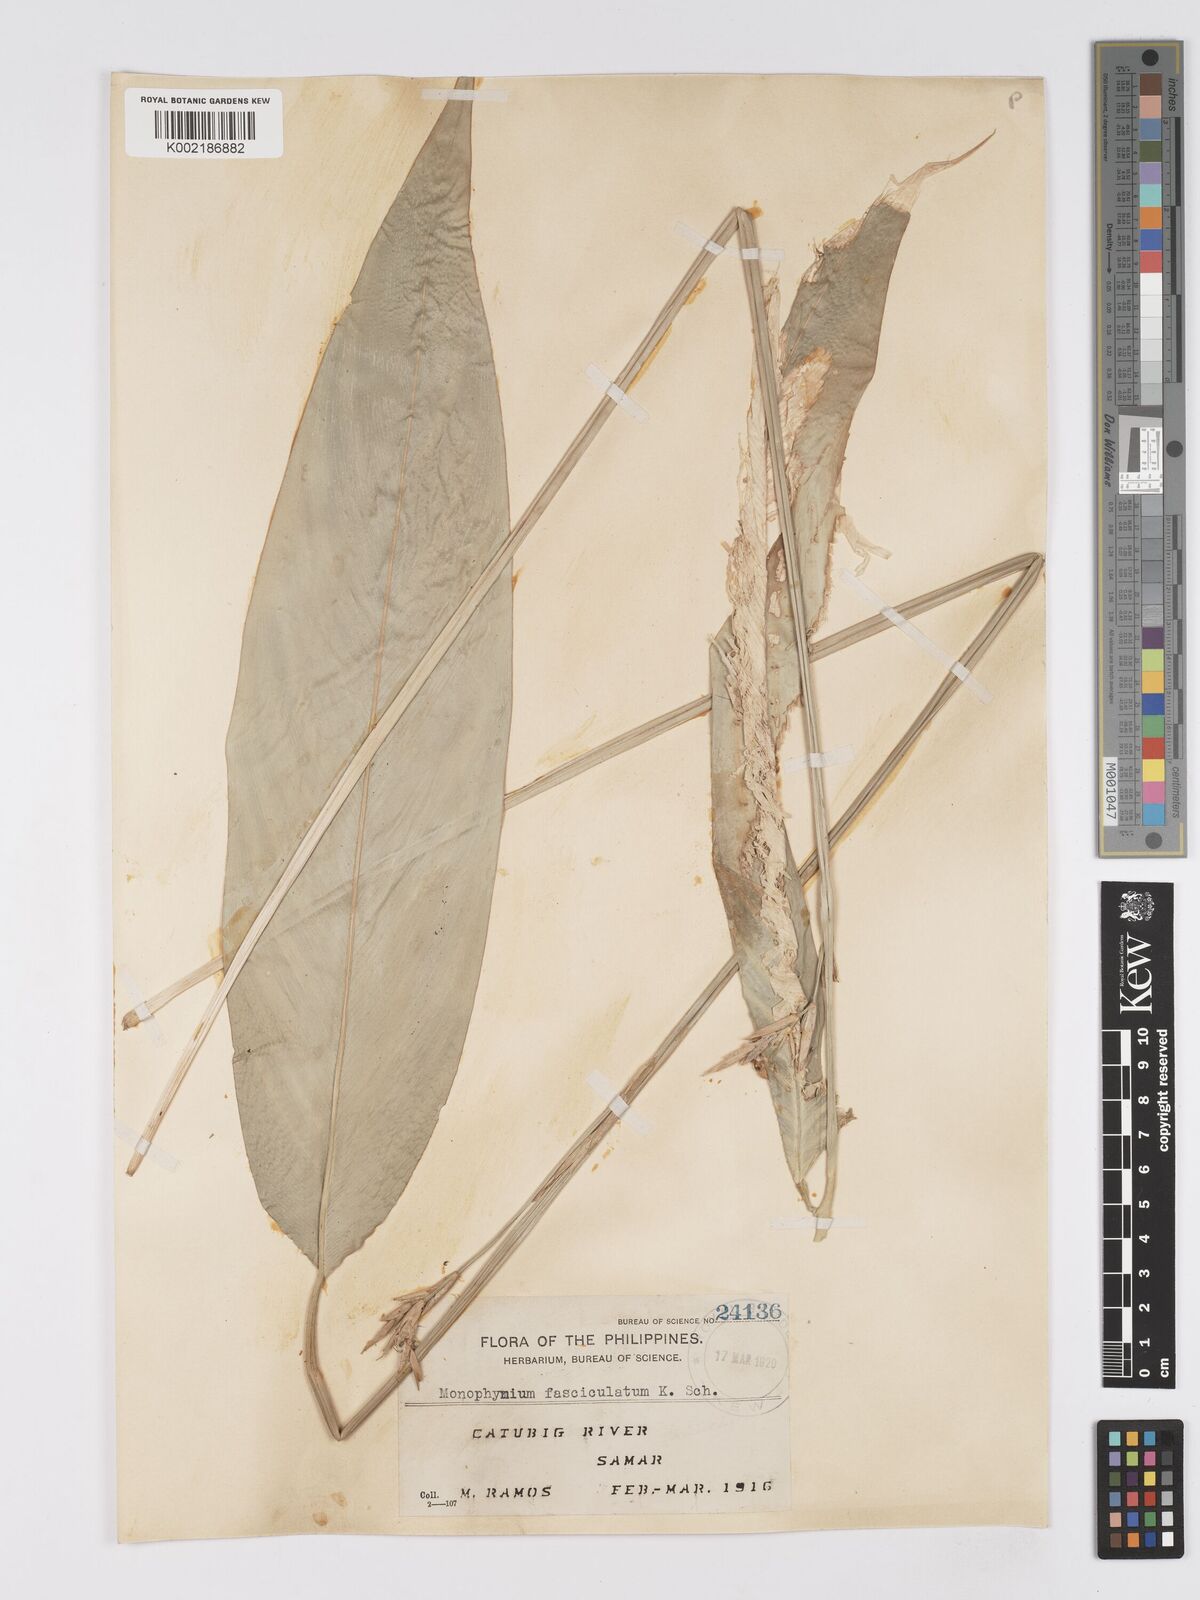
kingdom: Plantae
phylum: Tracheophyta
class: Liliopsida
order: Zingiberales
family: Marantaceae
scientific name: Marantaceae
